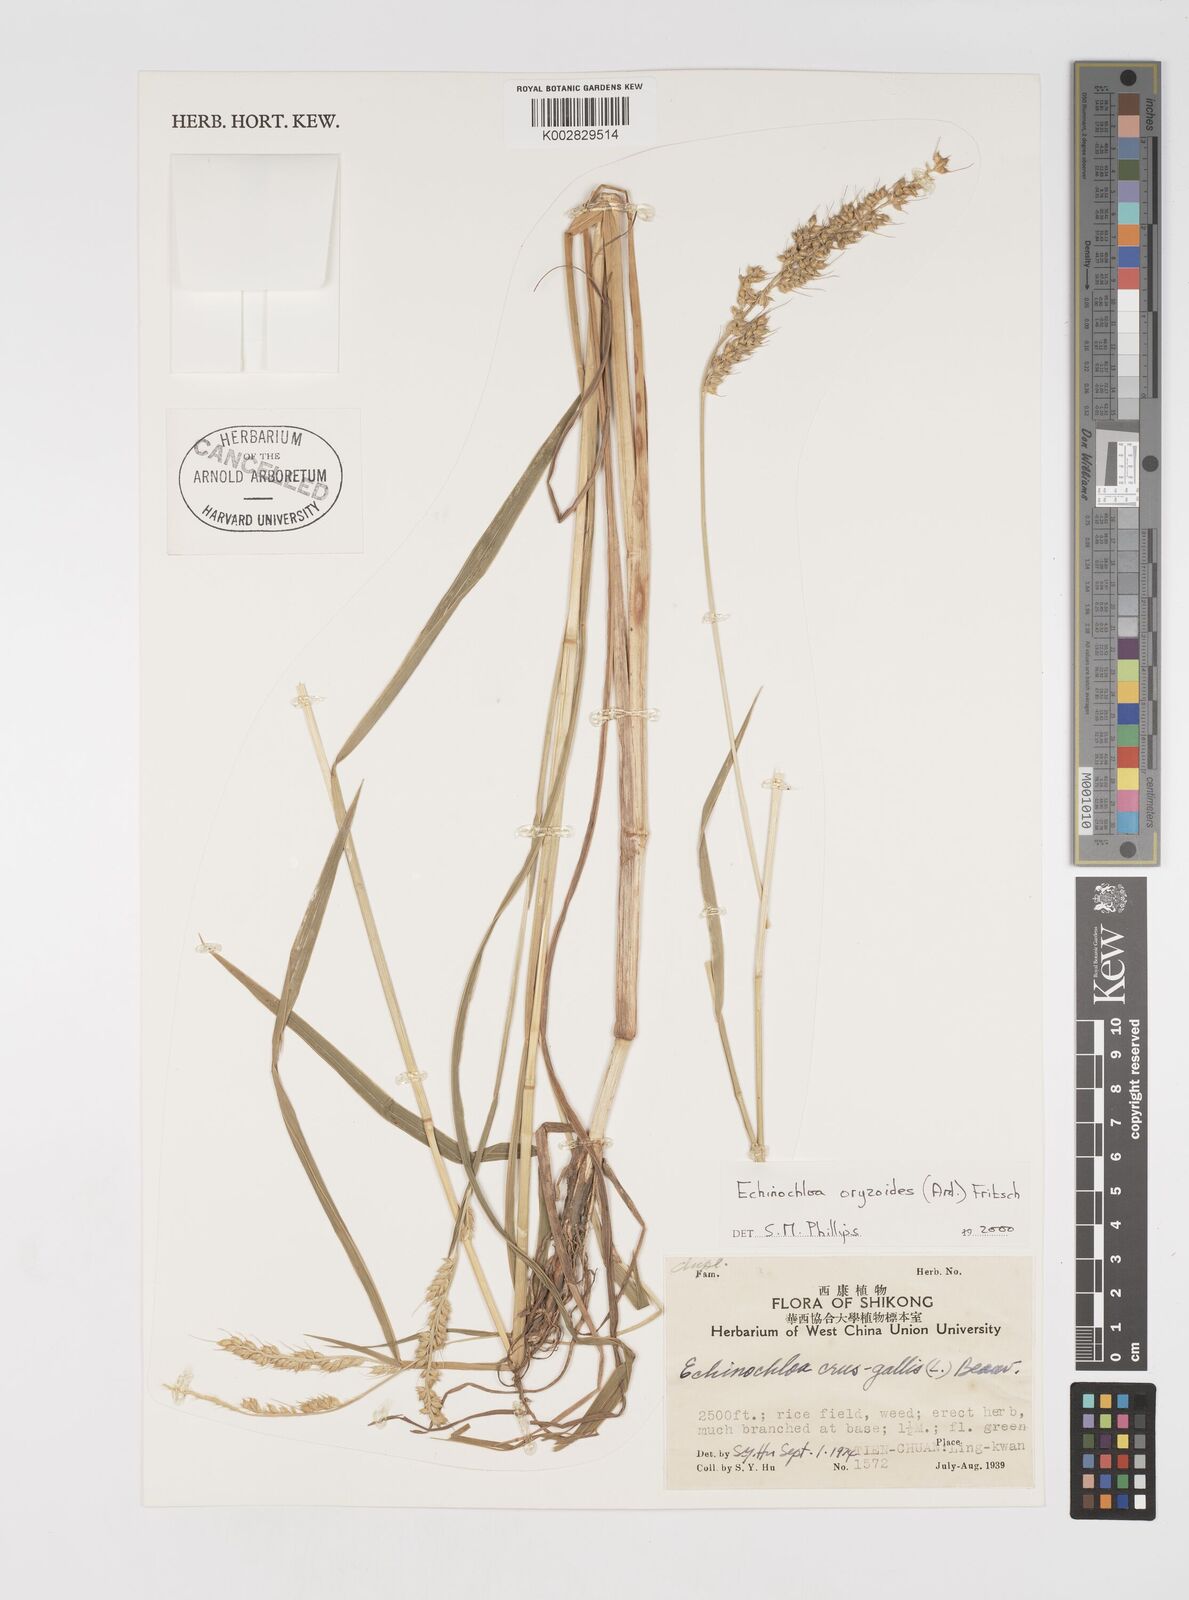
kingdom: Plantae
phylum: Tracheophyta
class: Liliopsida
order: Poales
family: Poaceae
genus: Echinochloa
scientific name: Echinochloa oryzoides
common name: Early water grass
